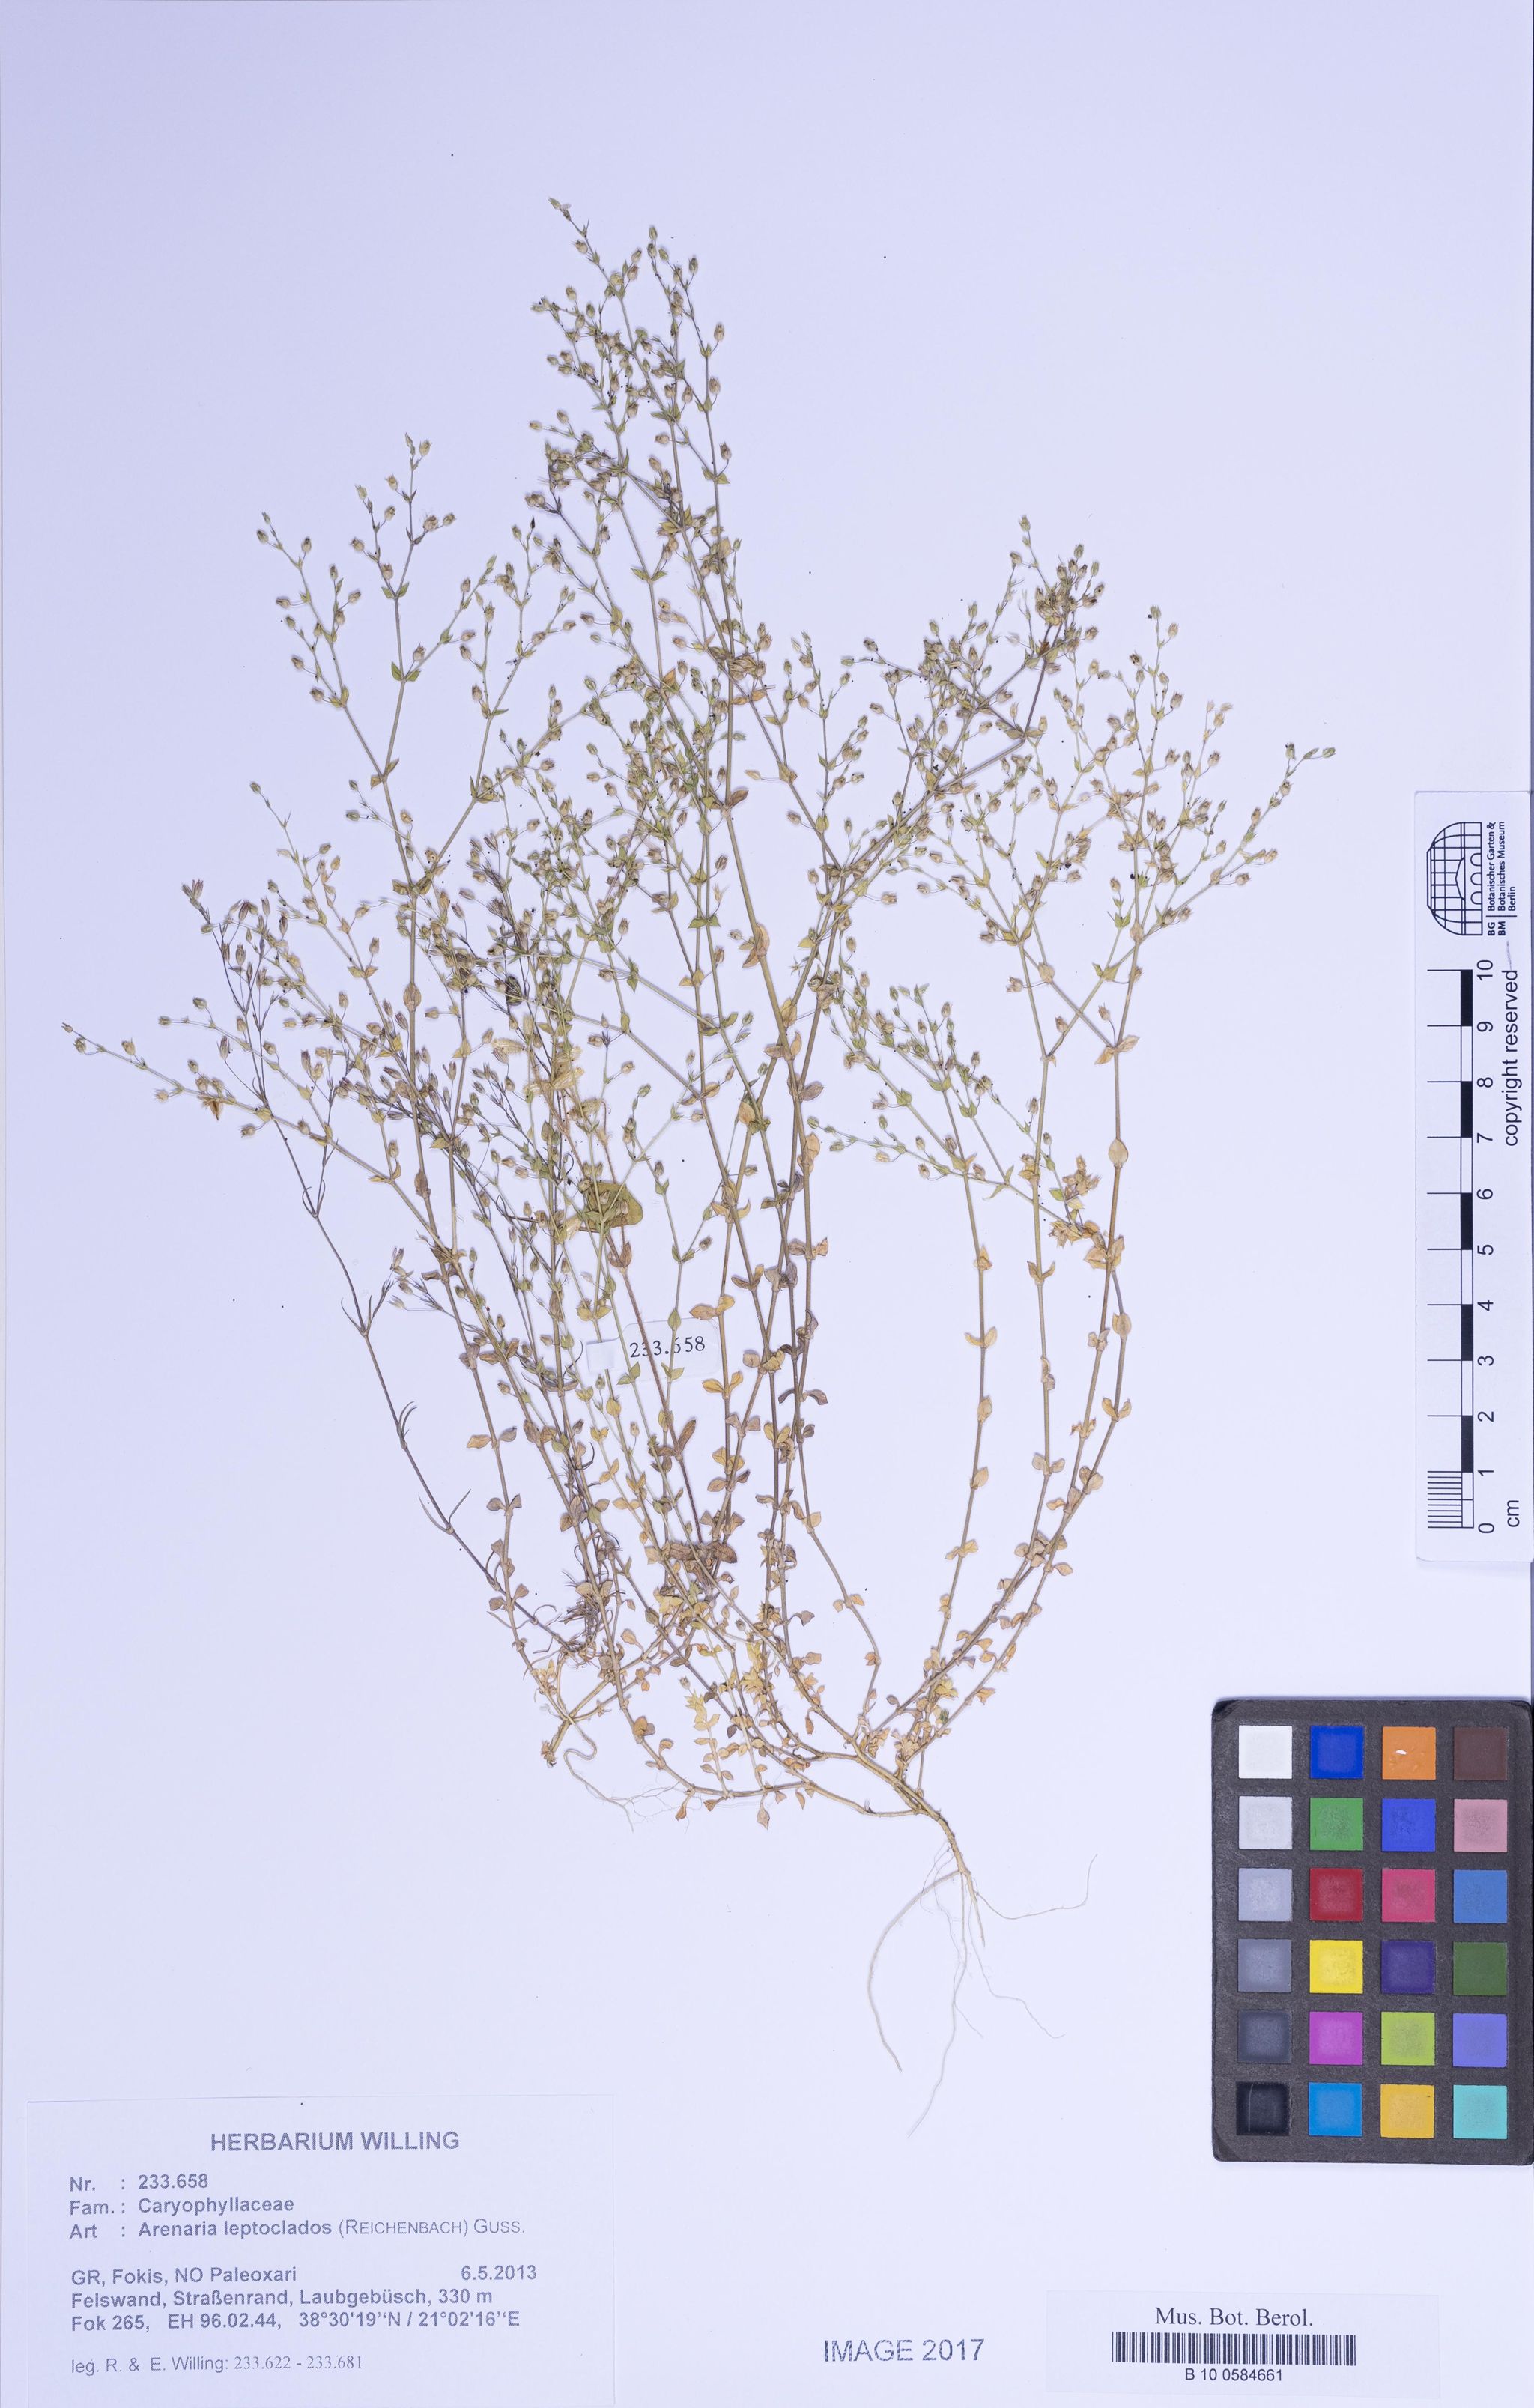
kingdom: Plantae
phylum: Tracheophyta
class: Magnoliopsida
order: Caryophyllales
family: Caryophyllaceae
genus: Arenaria
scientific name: Arenaria leptoclados
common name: Thyme-leaved sandwort
